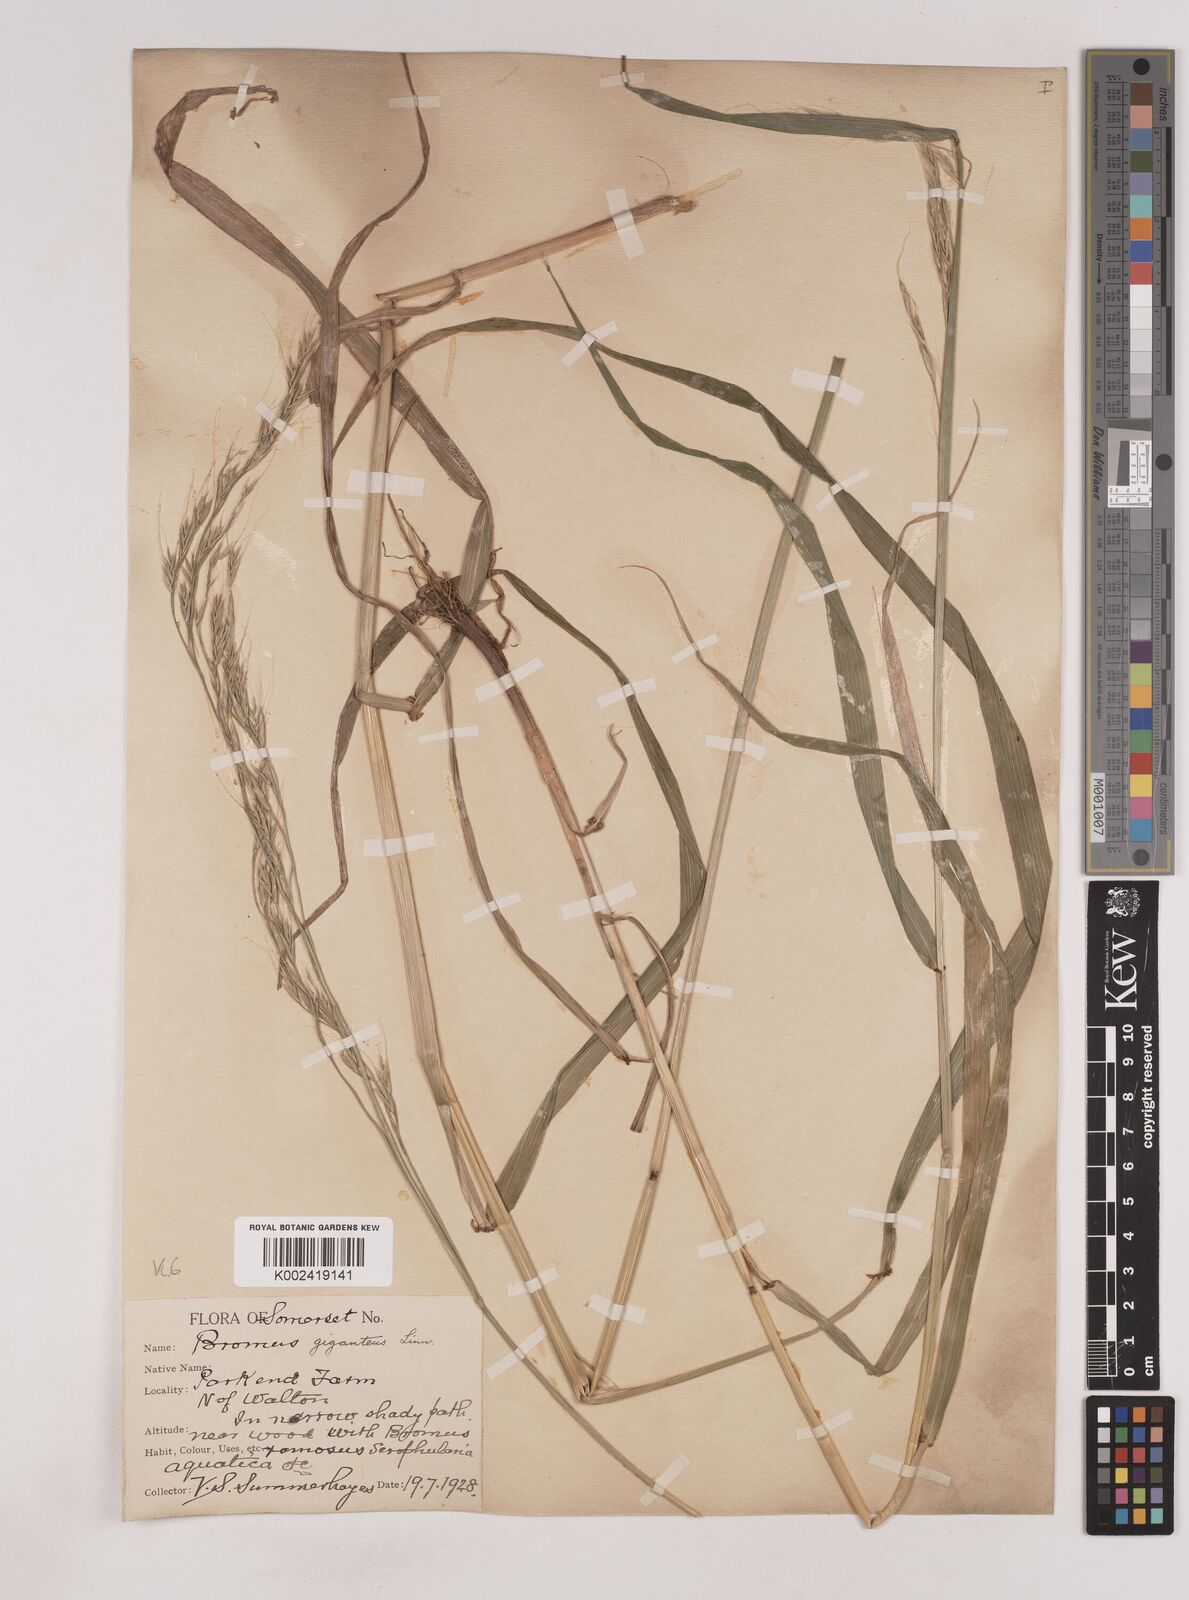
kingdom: Plantae
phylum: Tracheophyta
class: Liliopsida
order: Poales
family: Poaceae
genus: Lolium
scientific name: Lolium giganteum
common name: Giant fescue
